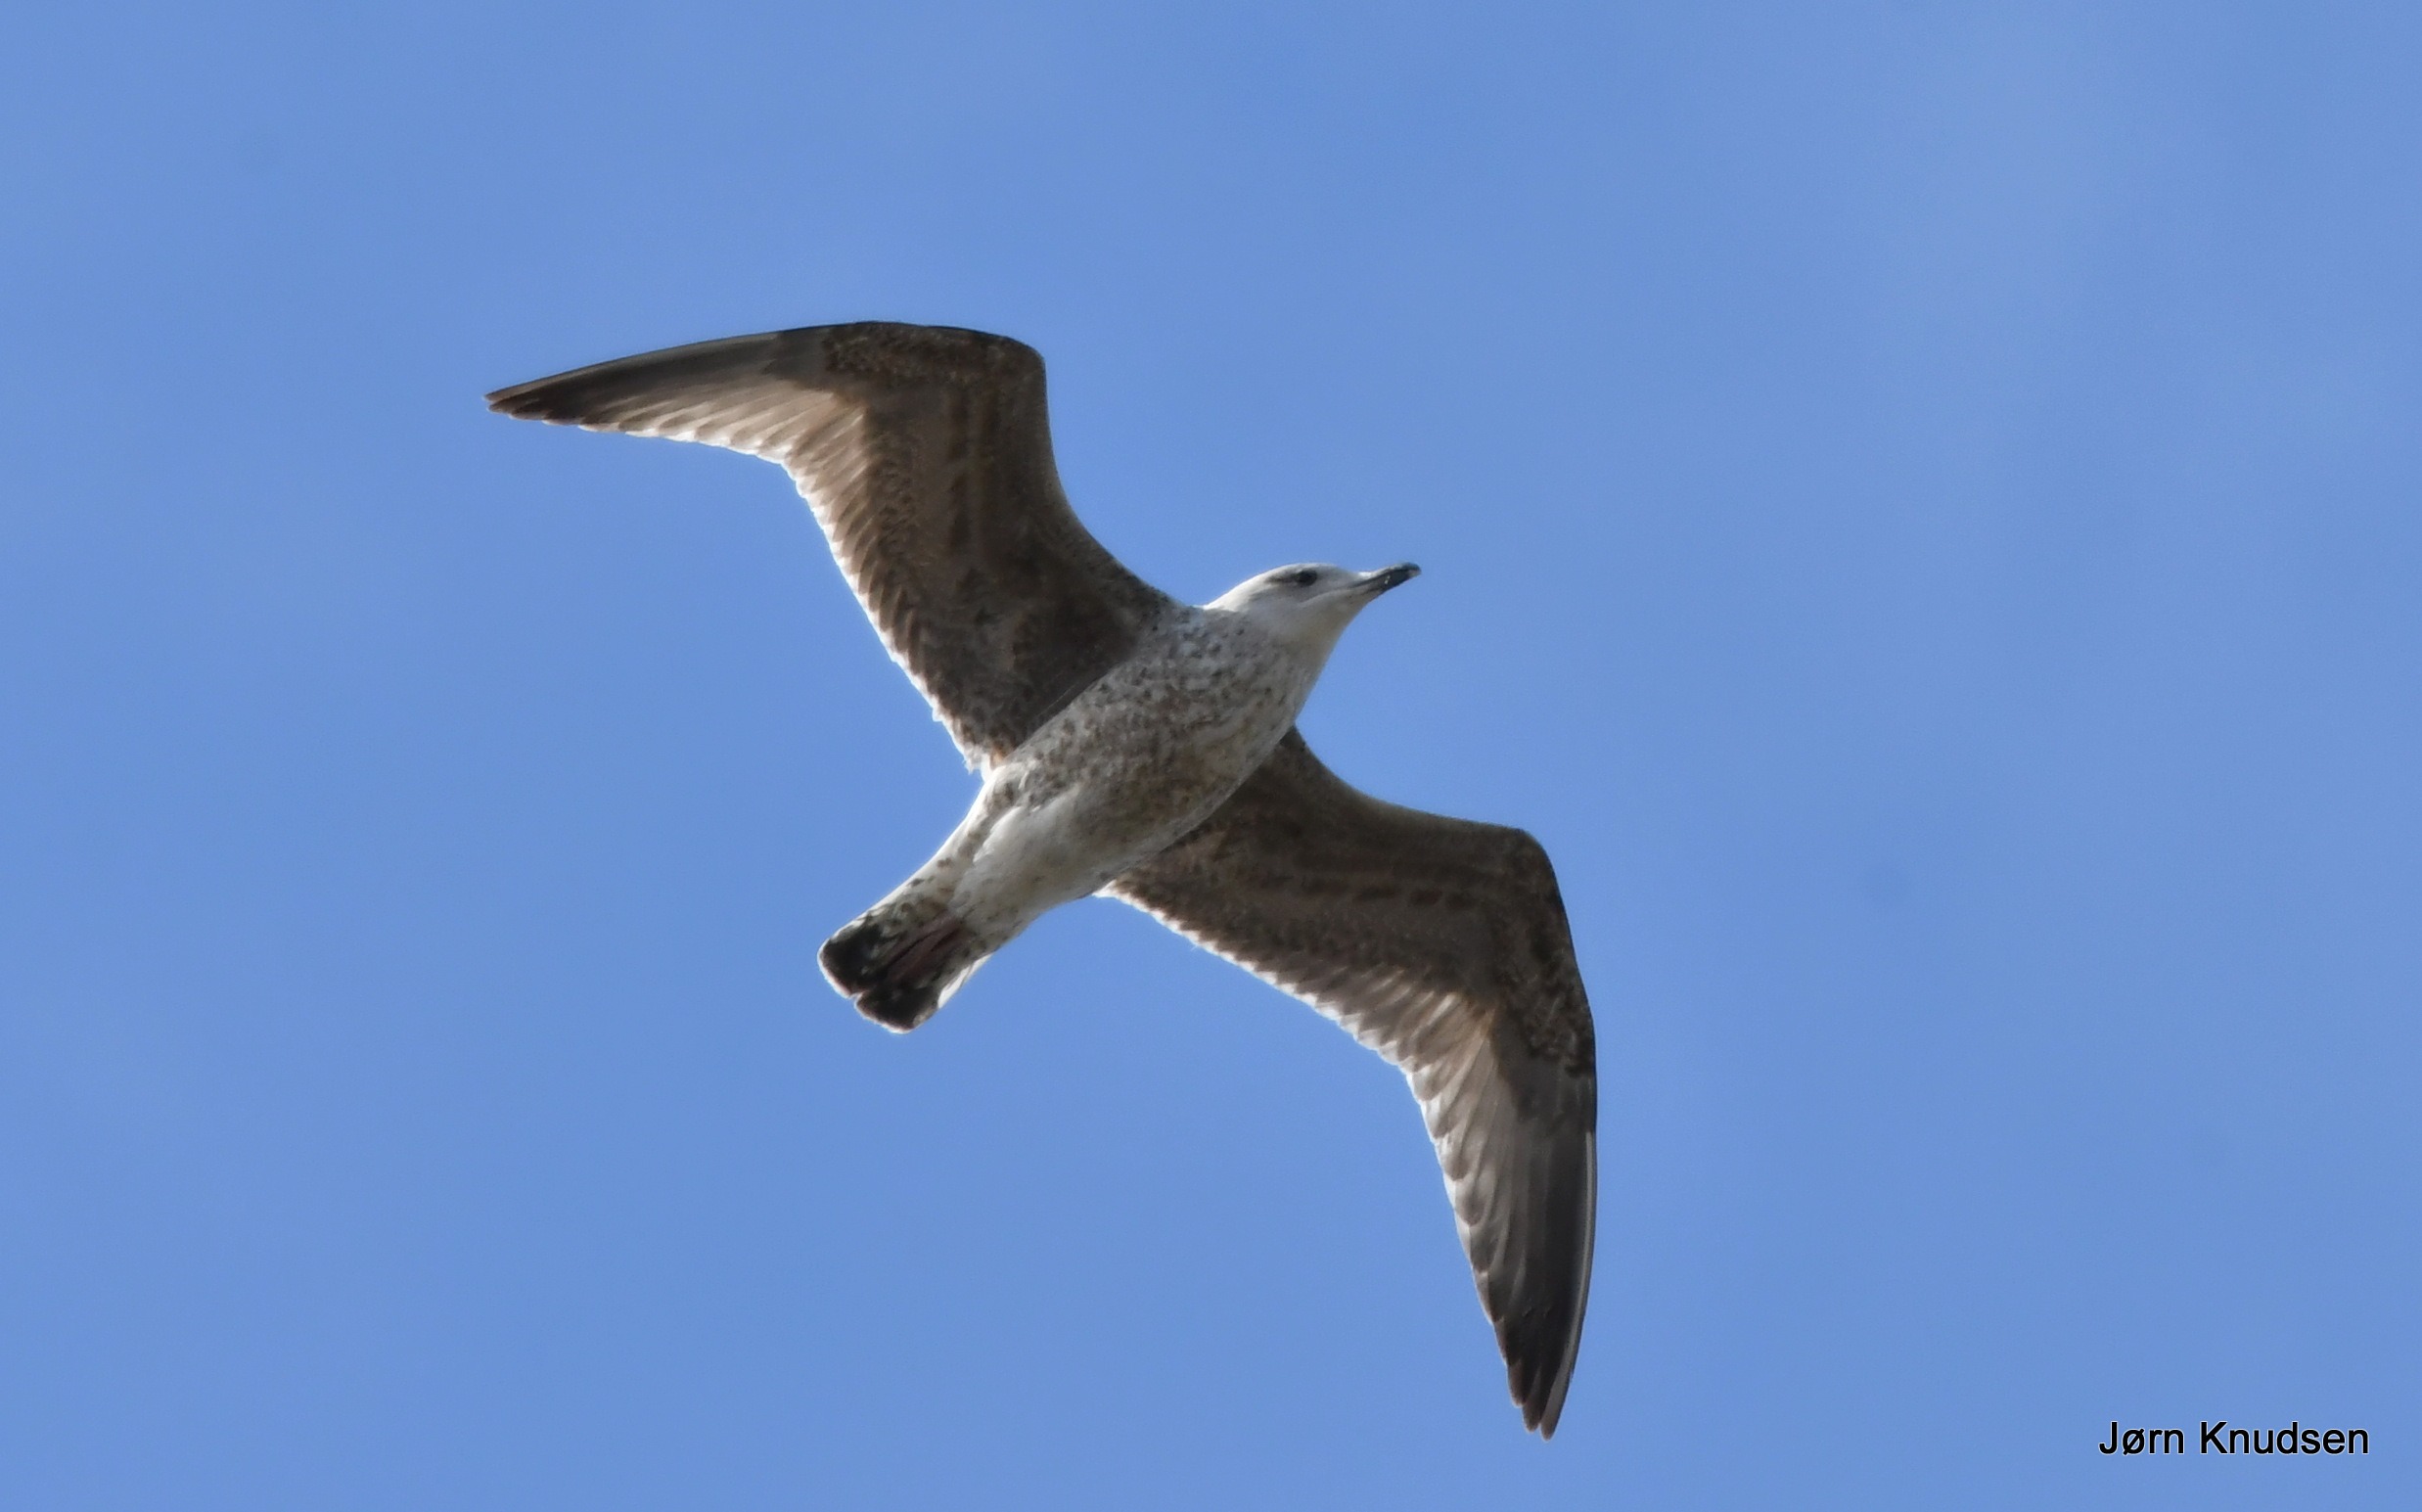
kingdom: Animalia
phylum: Chordata
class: Aves
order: Charadriiformes
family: Laridae
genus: Larus
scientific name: Larus argentatus
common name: Sølvmåge
